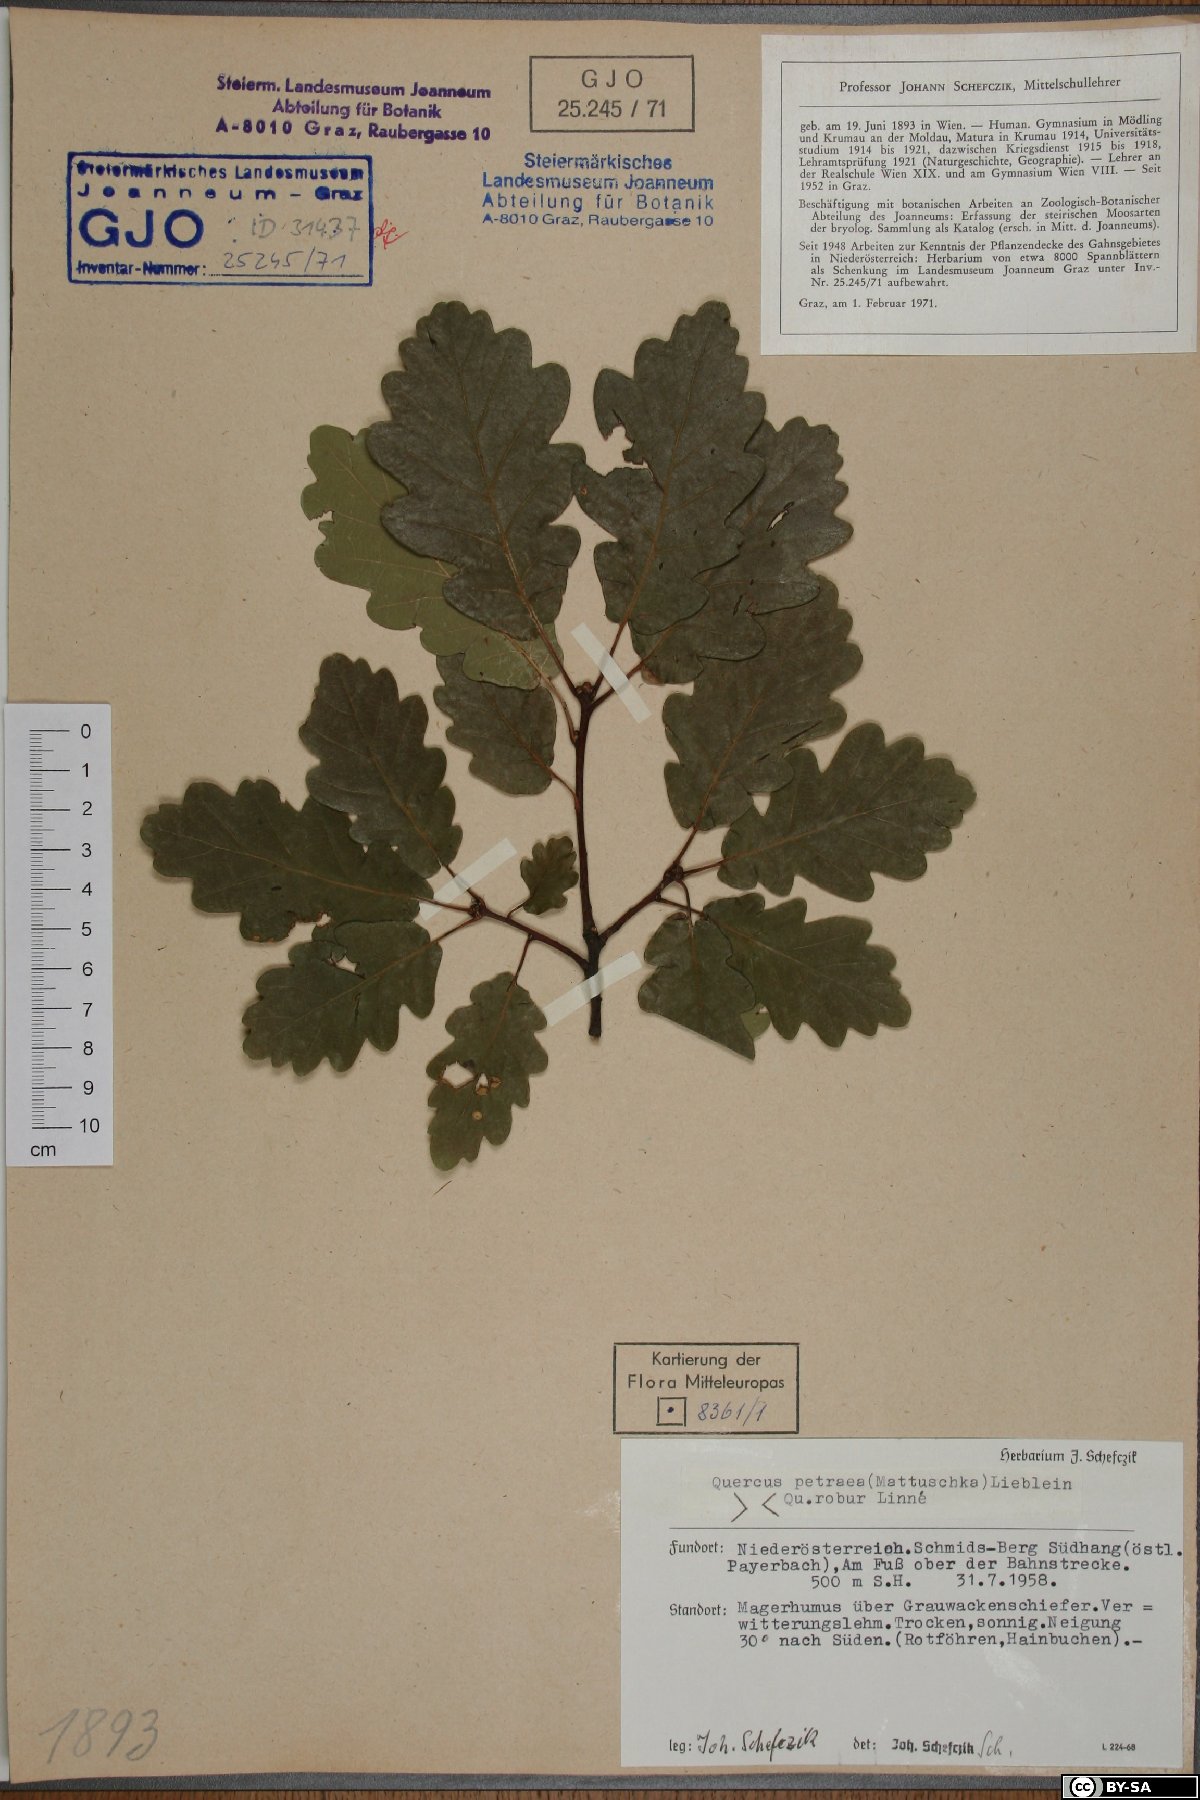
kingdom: Plantae
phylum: Tracheophyta
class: Magnoliopsida
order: Fagales
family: Fagaceae
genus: Quercus
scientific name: Quercus petraea
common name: Sessile oak
